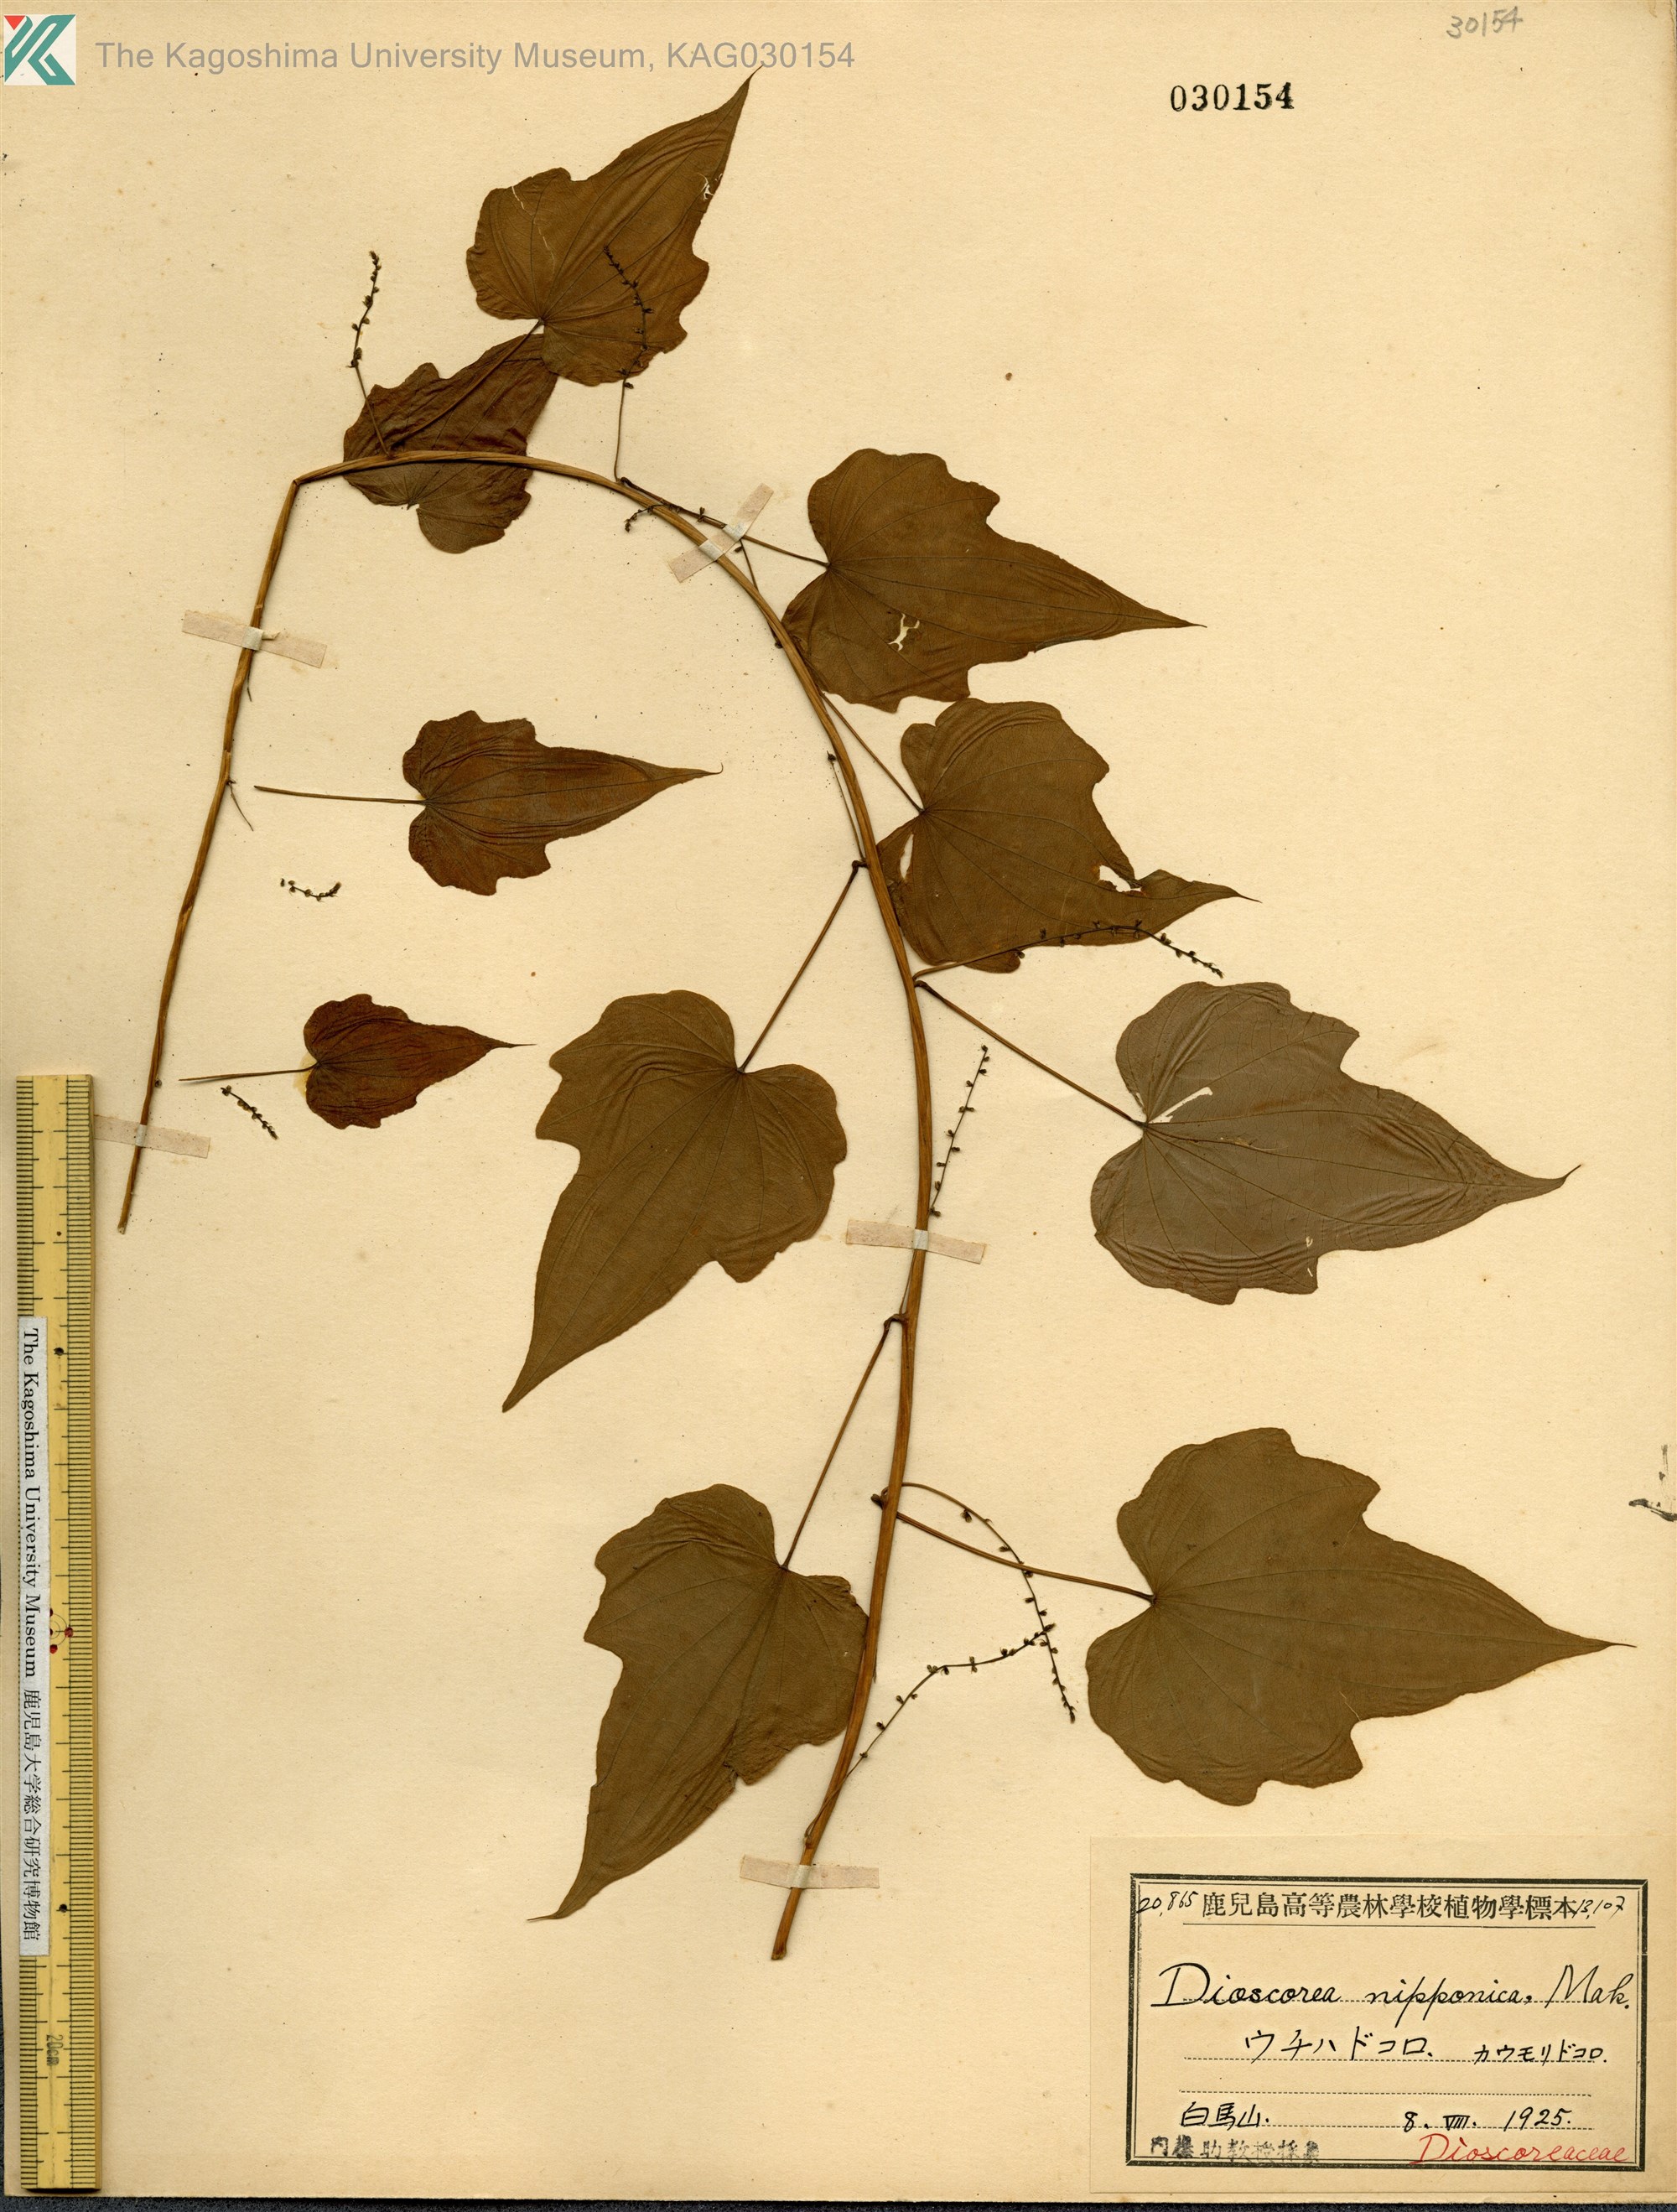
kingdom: Plantae
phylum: Tracheophyta
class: Liliopsida
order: Dioscoreales
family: Dioscoreaceae
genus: Dioscorea
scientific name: Dioscorea nipponica
